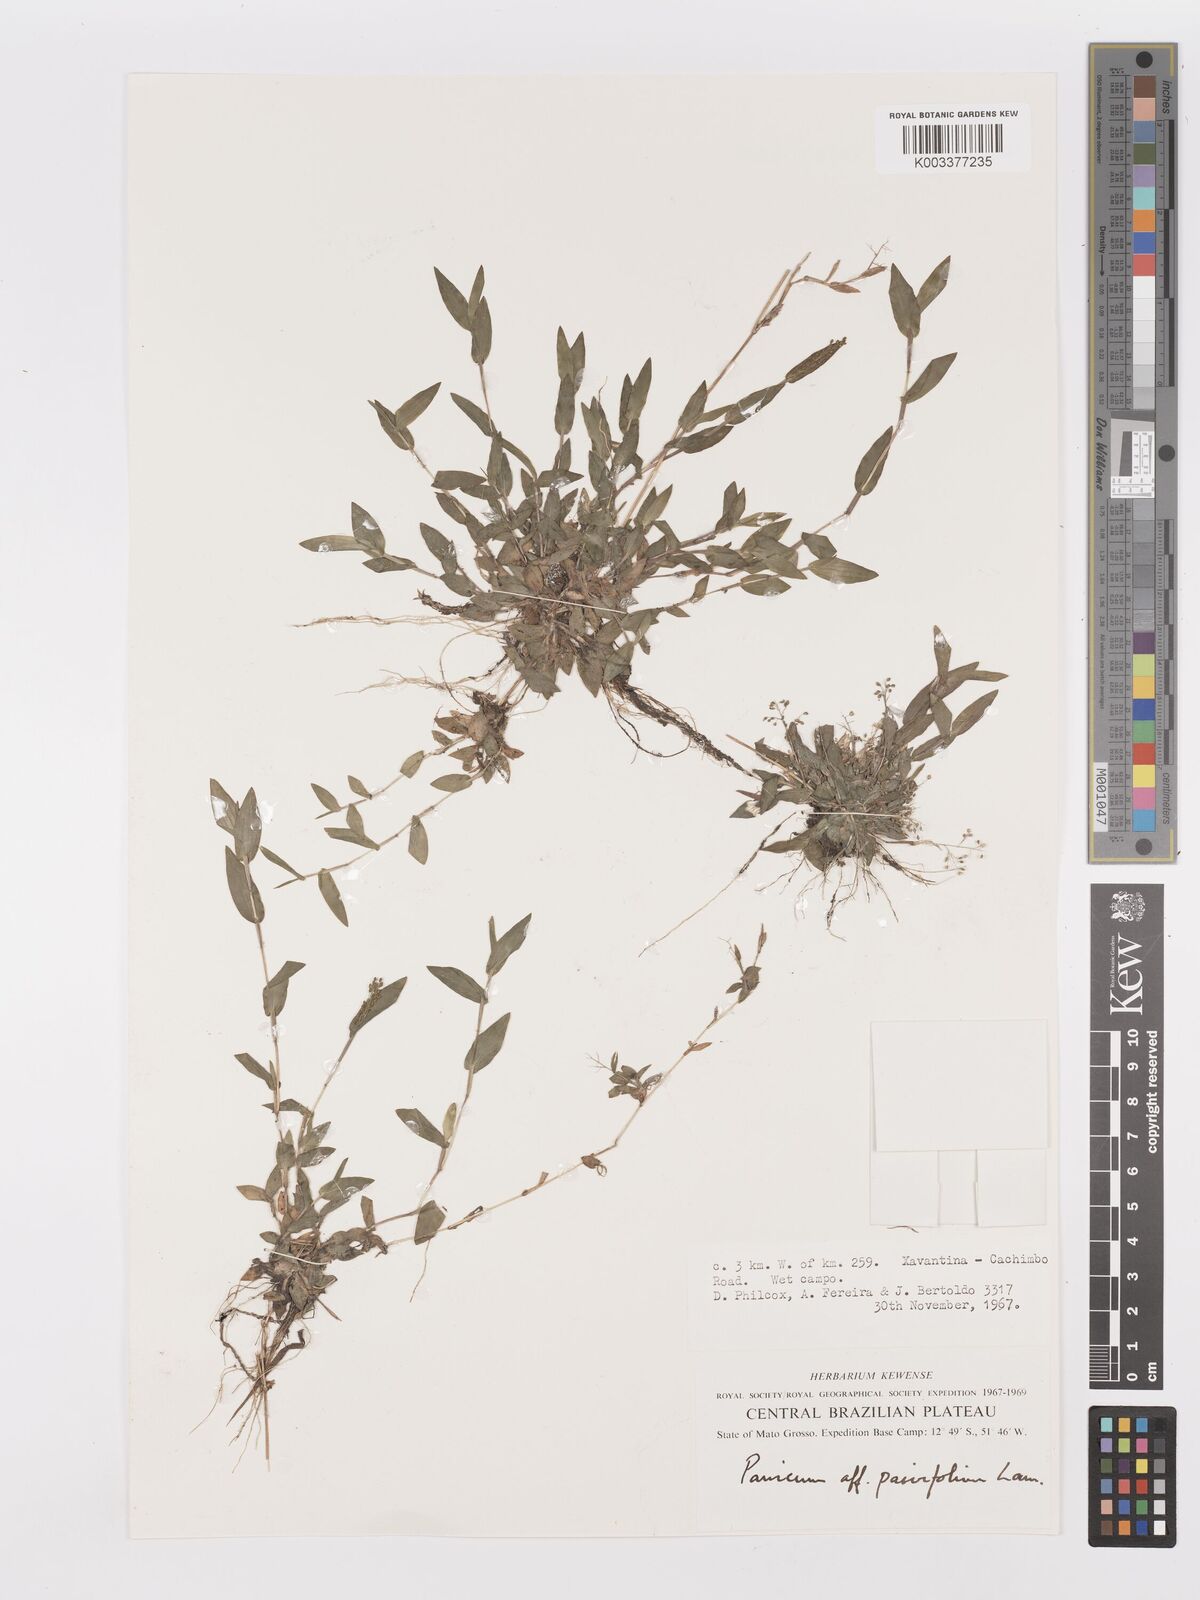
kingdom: Plantae
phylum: Tracheophyta
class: Liliopsida
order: Poales
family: Poaceae
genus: Trichanthecium
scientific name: Trichanthecium schwackeanum
